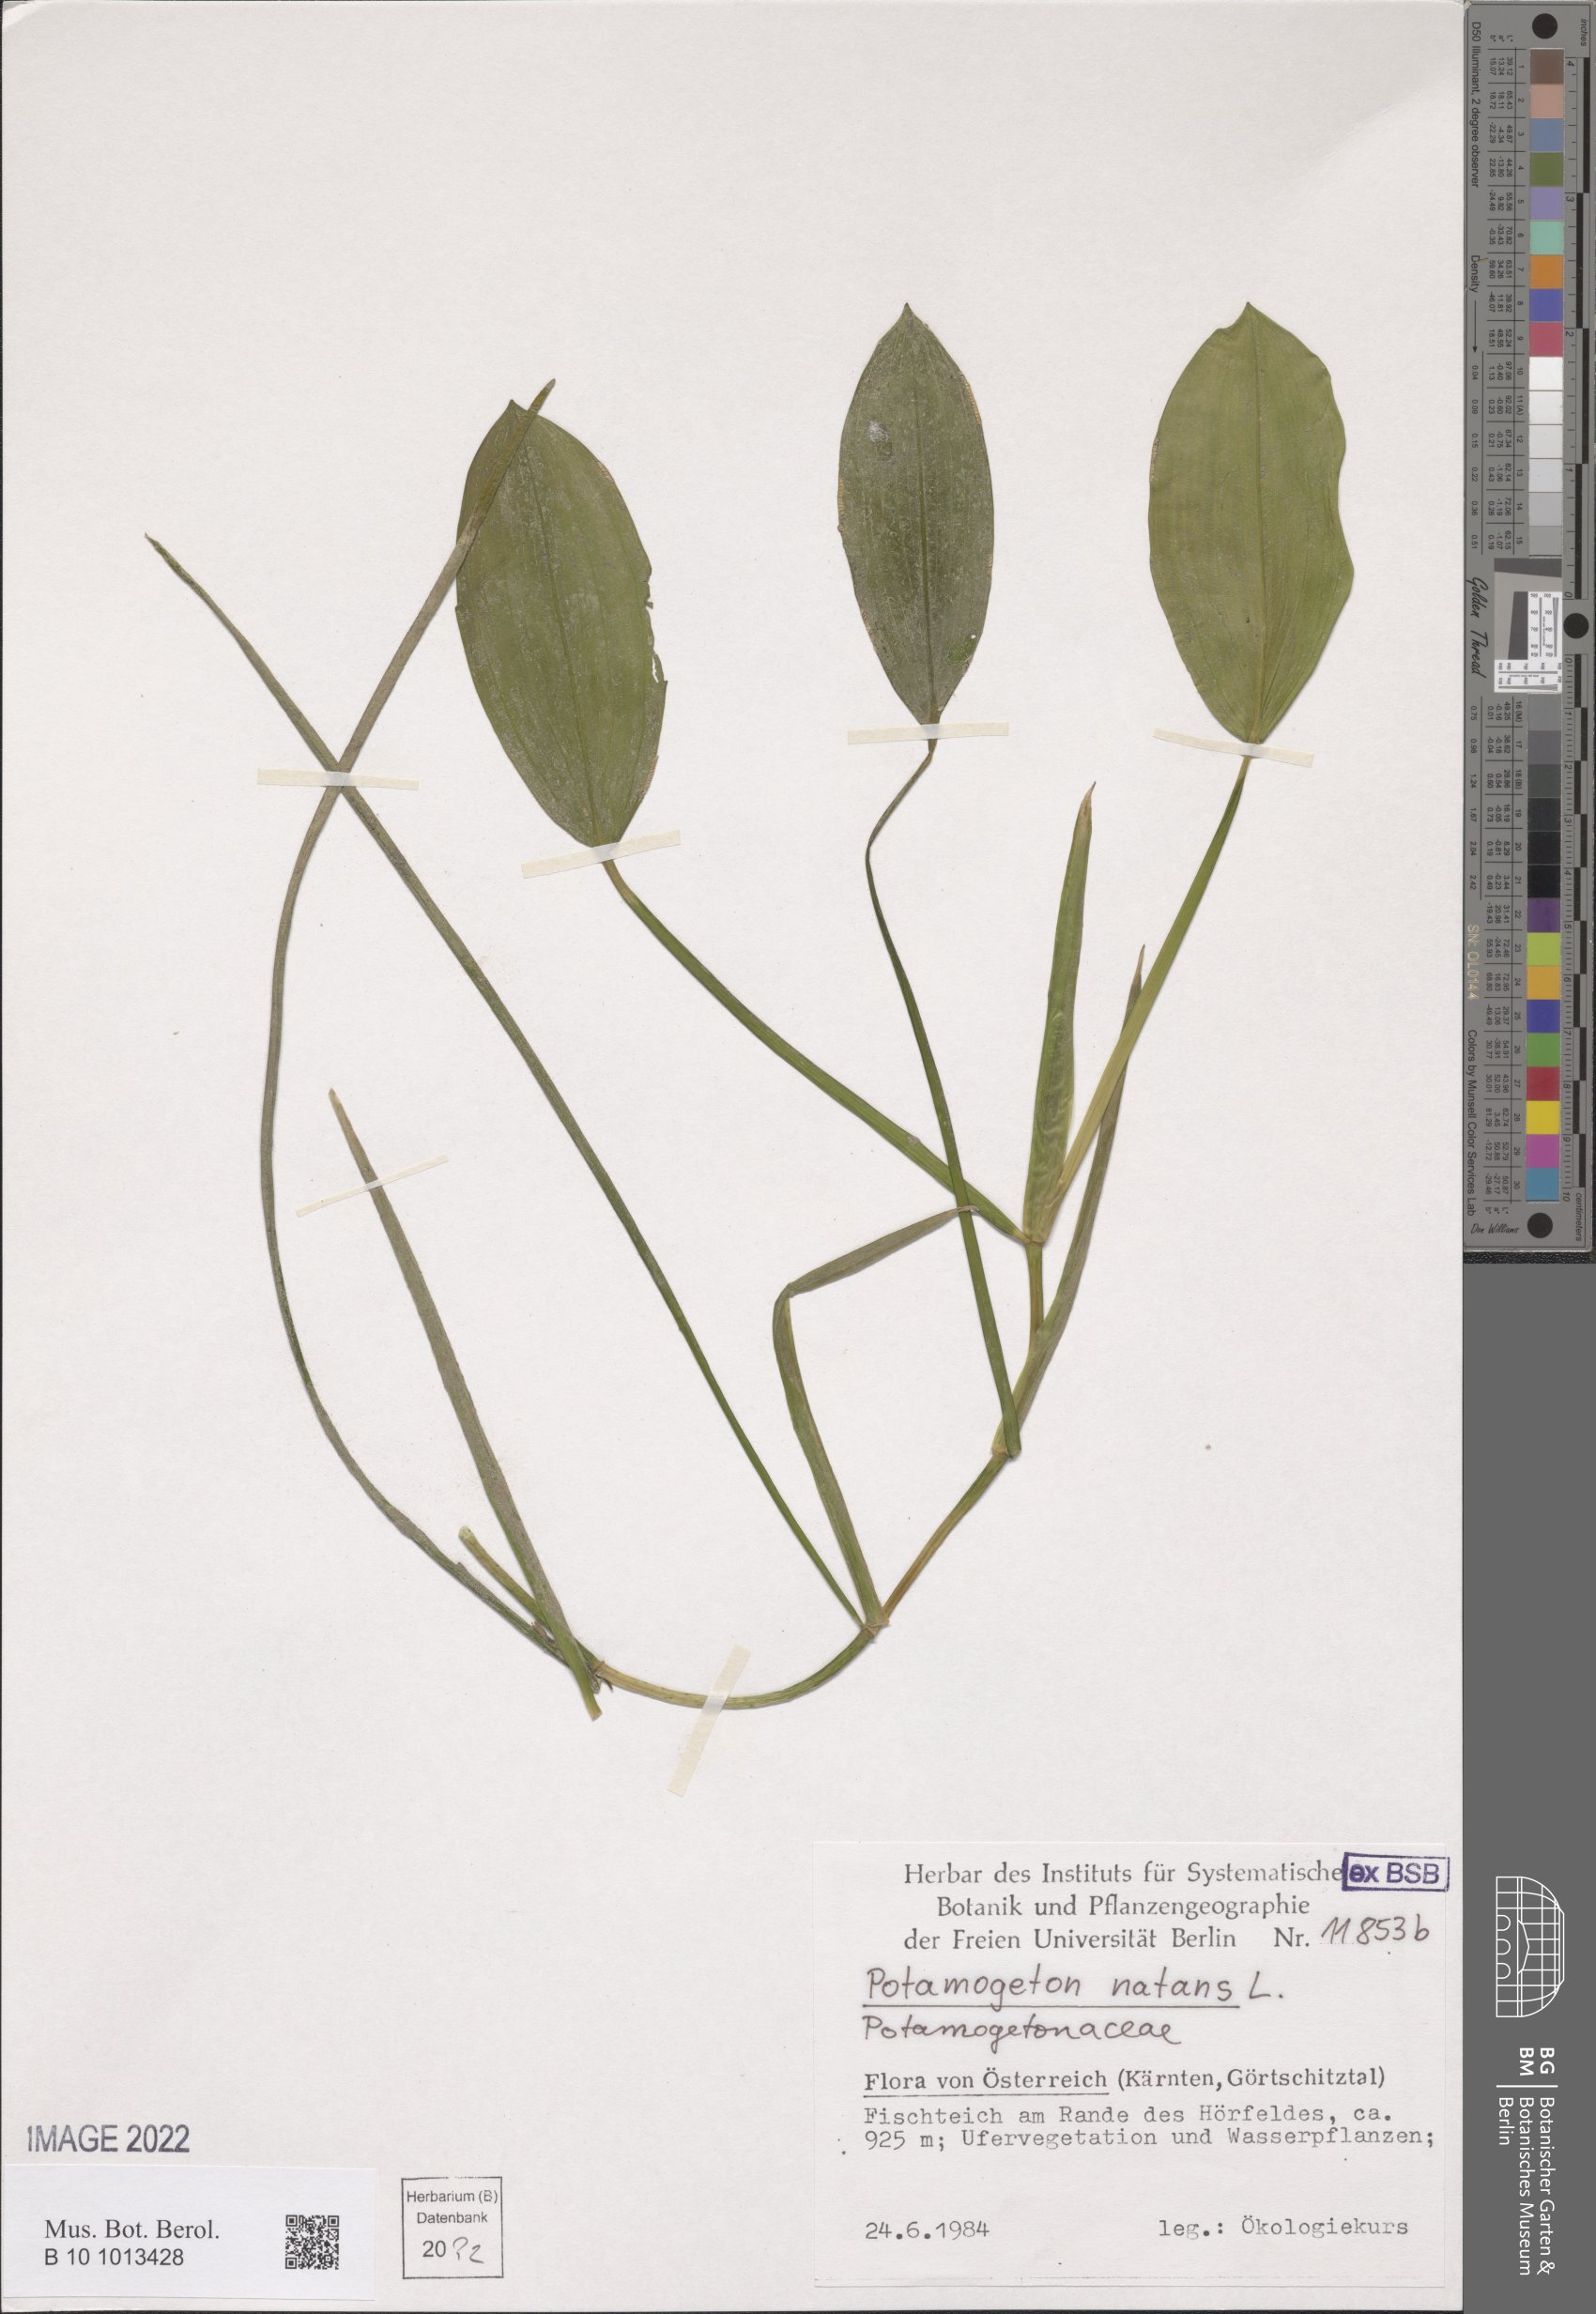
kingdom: Plantae
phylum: Tracheophyta
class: Liliopsida
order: Alismatales
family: Potamogetonaceae
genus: Potamogeton
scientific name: Potamogeton natans
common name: Broad-leaved pondweed
